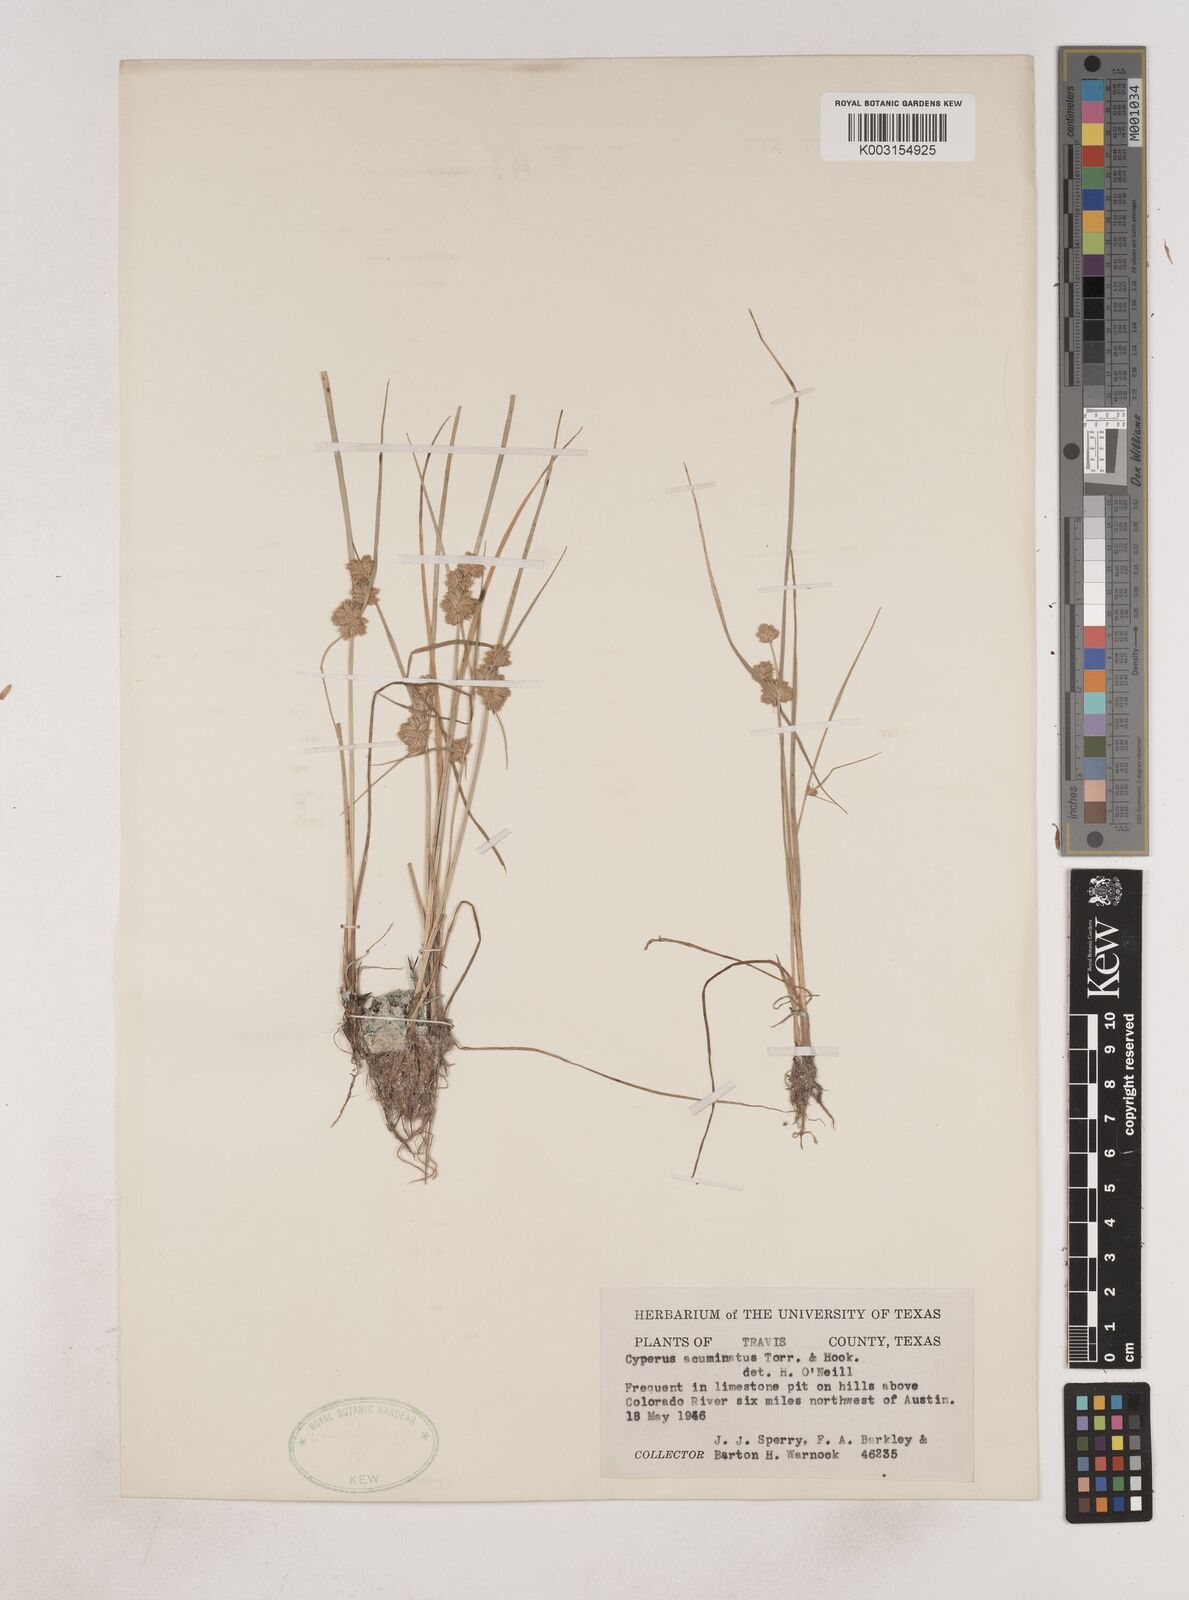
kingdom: Plantae
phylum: Tracheophyta
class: Liliopsida
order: Poales
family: Cyperaceae
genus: Cyperus
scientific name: Cyperus acuminatus
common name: Short-pointed cyperus
